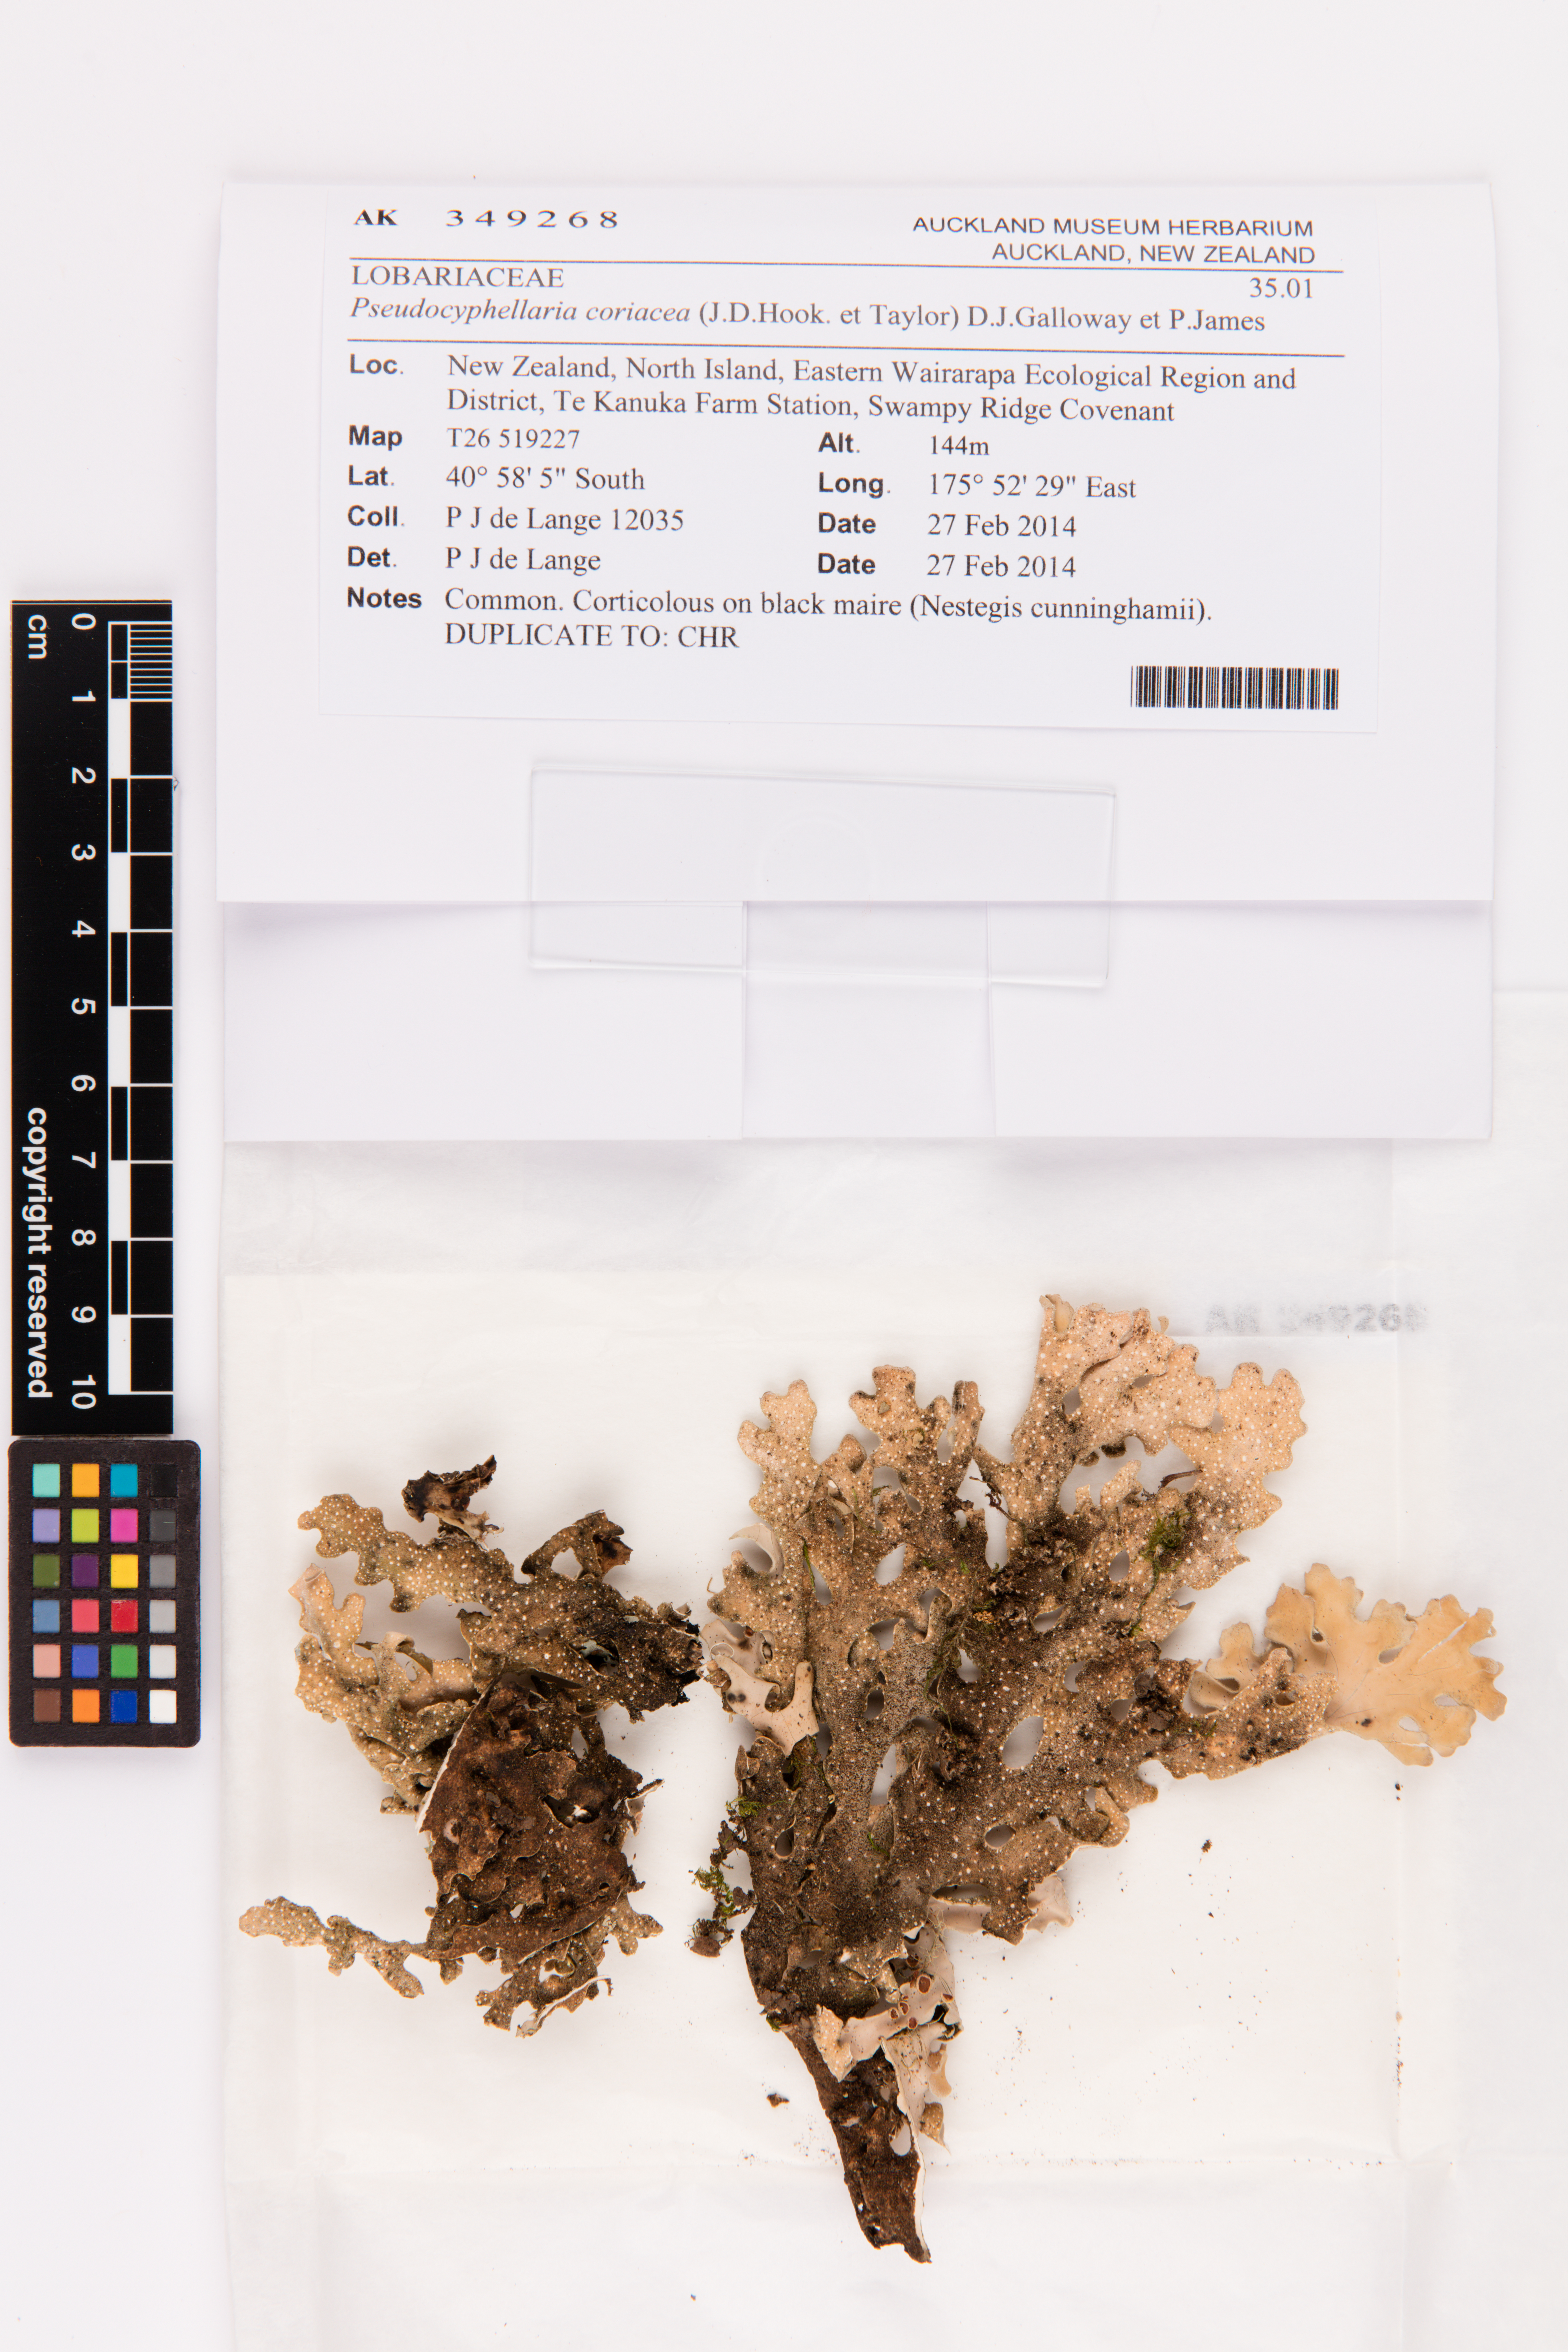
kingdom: Fungi
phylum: Ascomycota
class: Lecanoromycetes
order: Peltigerales
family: Lobariaceae
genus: Pseudocyphellaria
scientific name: Pseudocyphellaria coriacea
